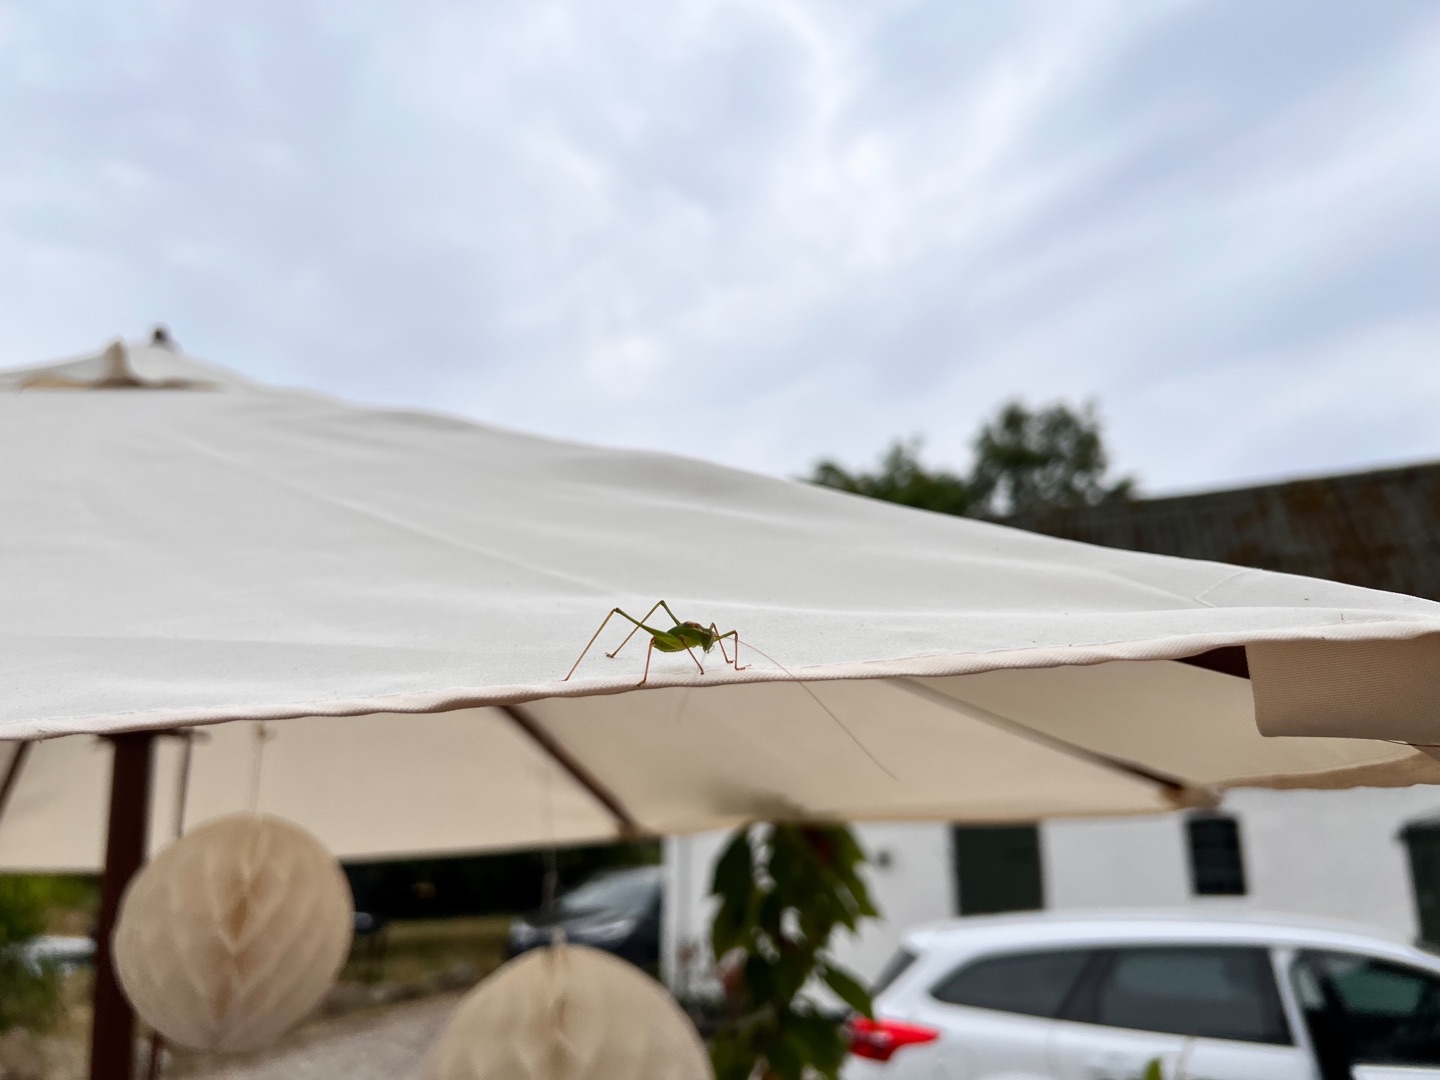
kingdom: Animalia
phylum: Arthropoda
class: Insecta
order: Orthoptera
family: Tettigoniidae
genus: Leptophyes
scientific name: Leptophyes punctatissima
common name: Krumknivgræshoppe
